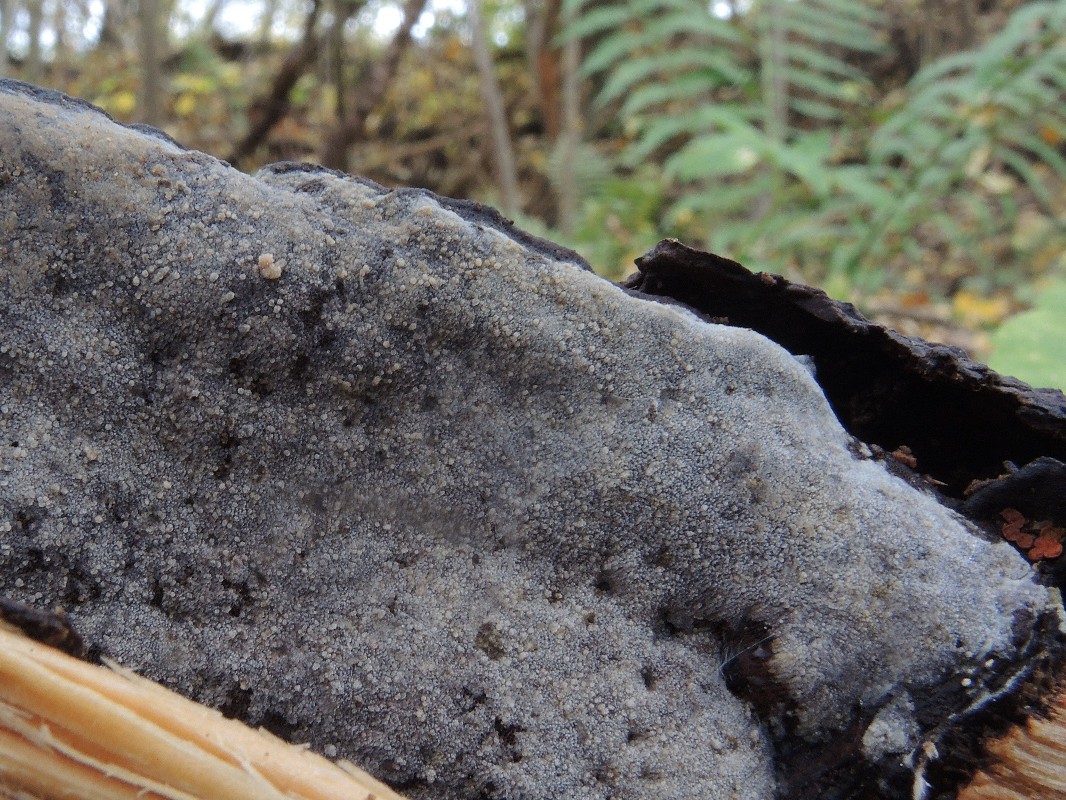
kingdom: Fungi
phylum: Basidiomycota
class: Agaricomycetes
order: Polyporales
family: Meruliaceae
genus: Scopuloides
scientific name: Scopuloides rimosa
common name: dughinde
